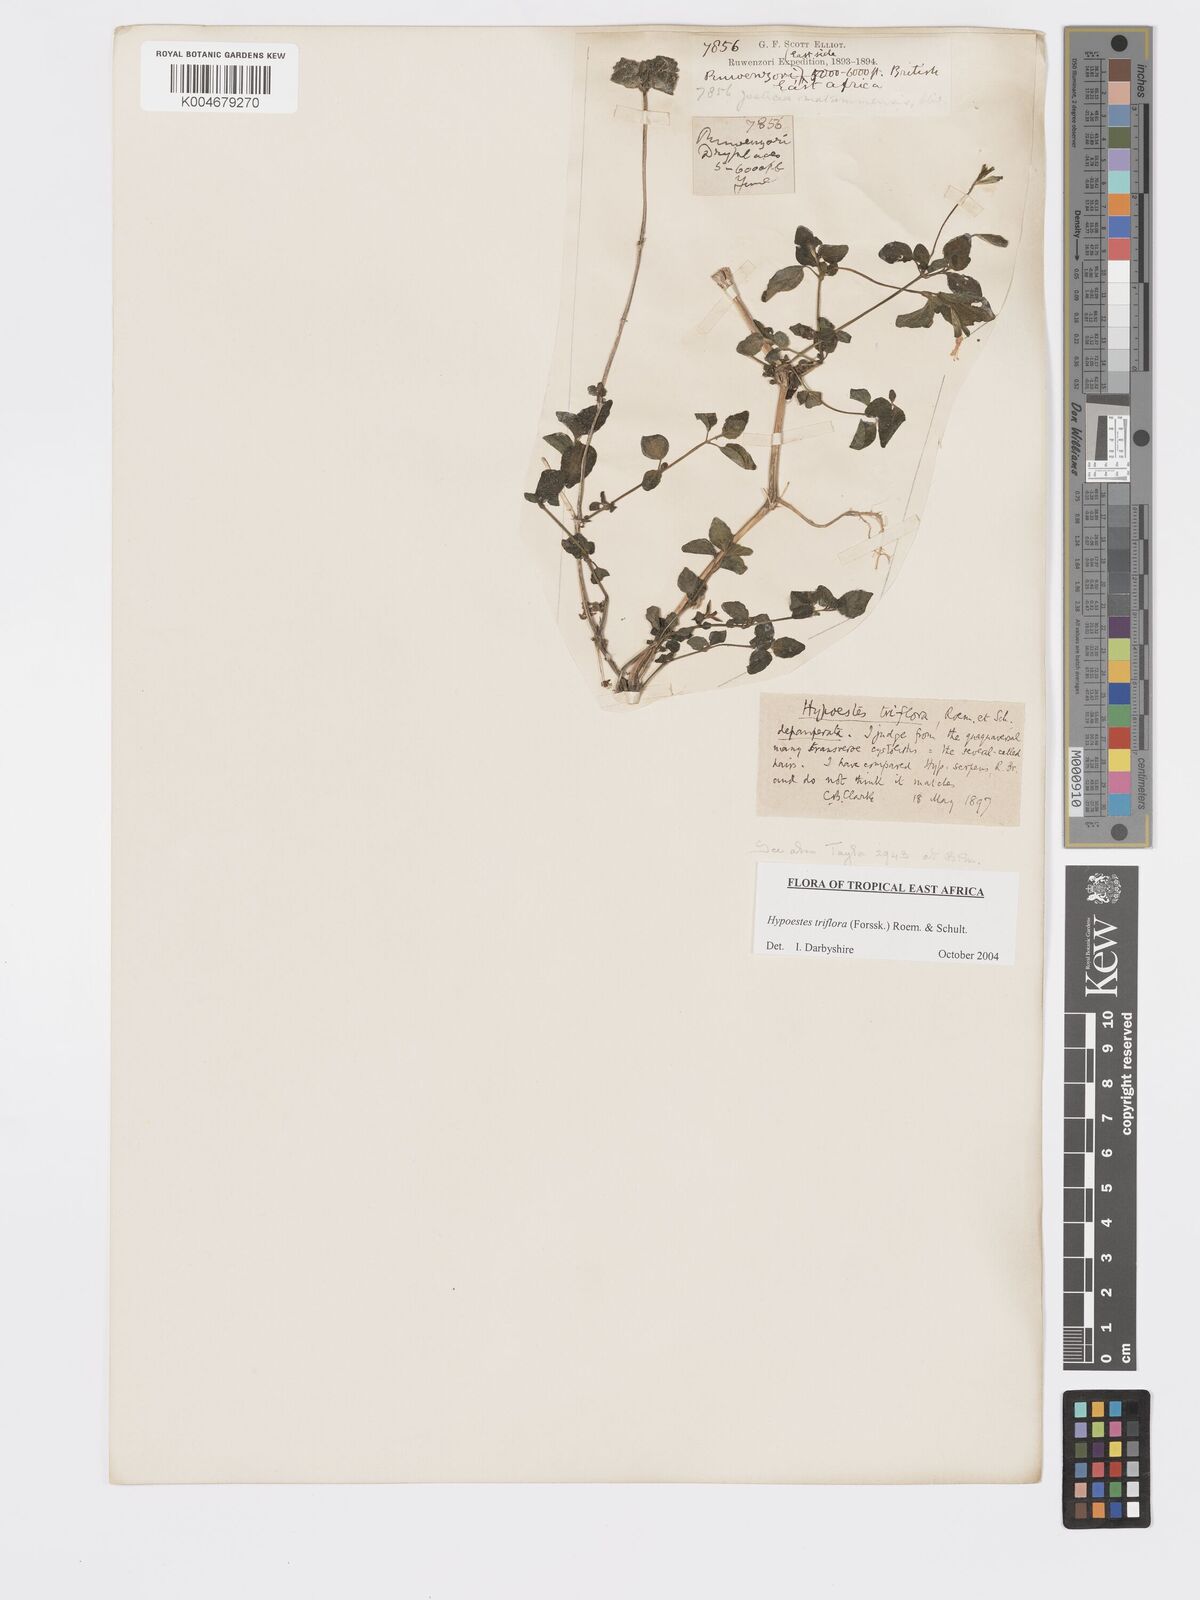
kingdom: Plantae
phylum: Tracheophyta
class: Magnoliopsida
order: Lamiales
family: Acanthaceae
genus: Hypoestes
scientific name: Hypoestes triflora
